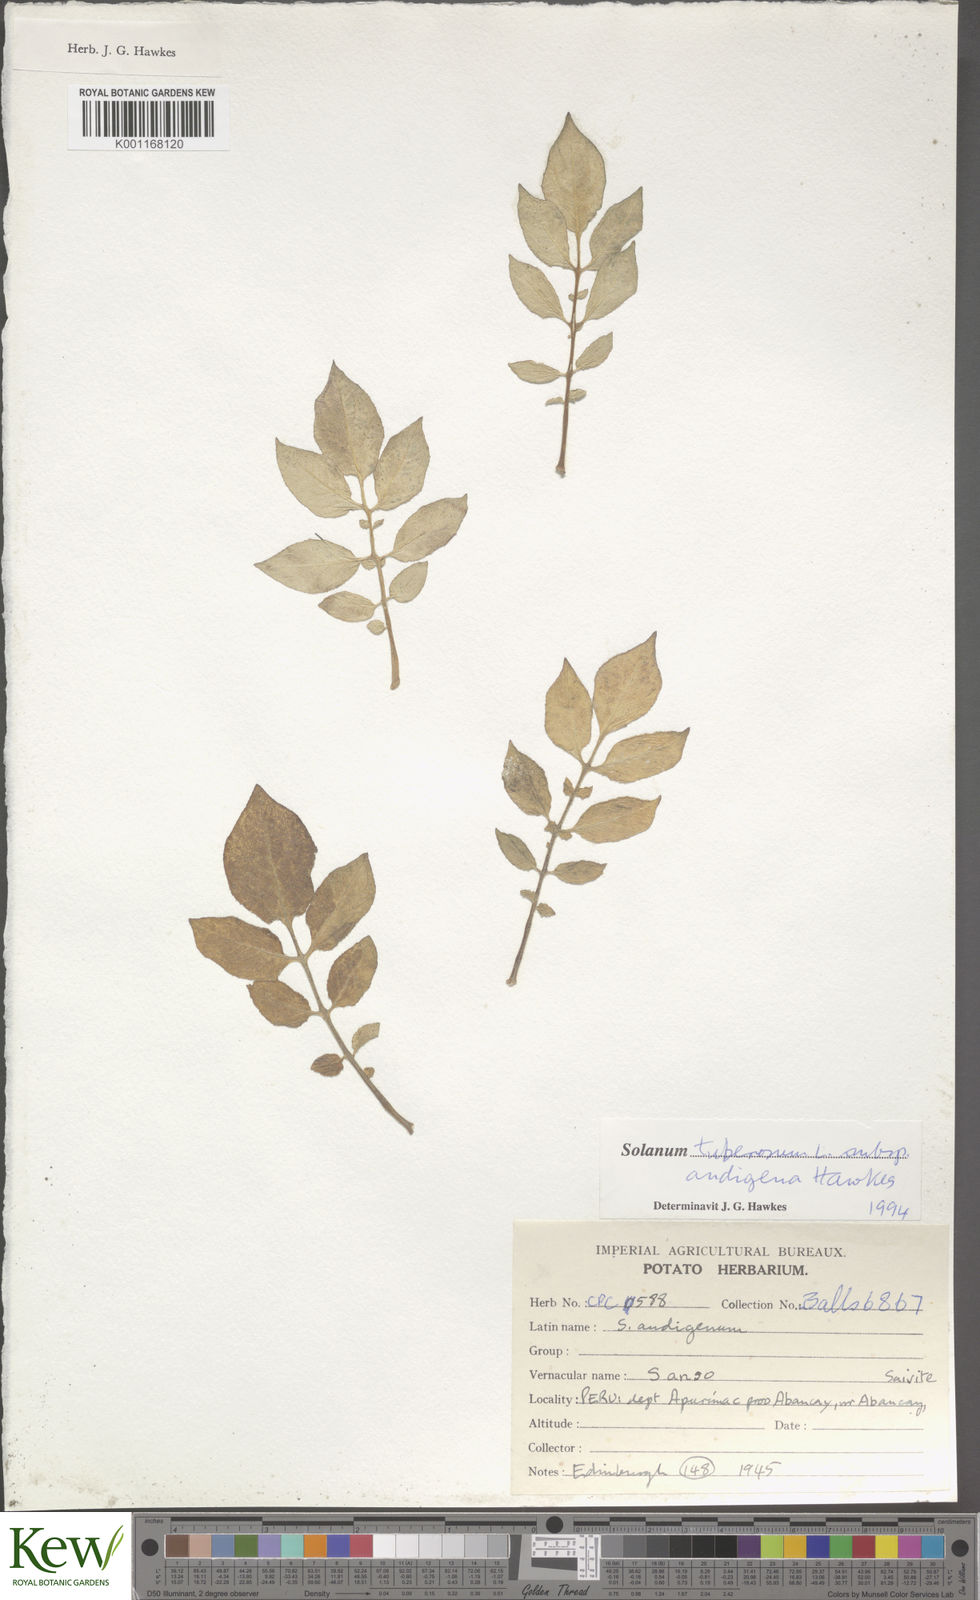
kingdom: Plantae
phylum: Tracheophyta
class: Magnoliopsida
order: Solanales
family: Solanaceae
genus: Solanum
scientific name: Solanum tuberosum
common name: Potato
